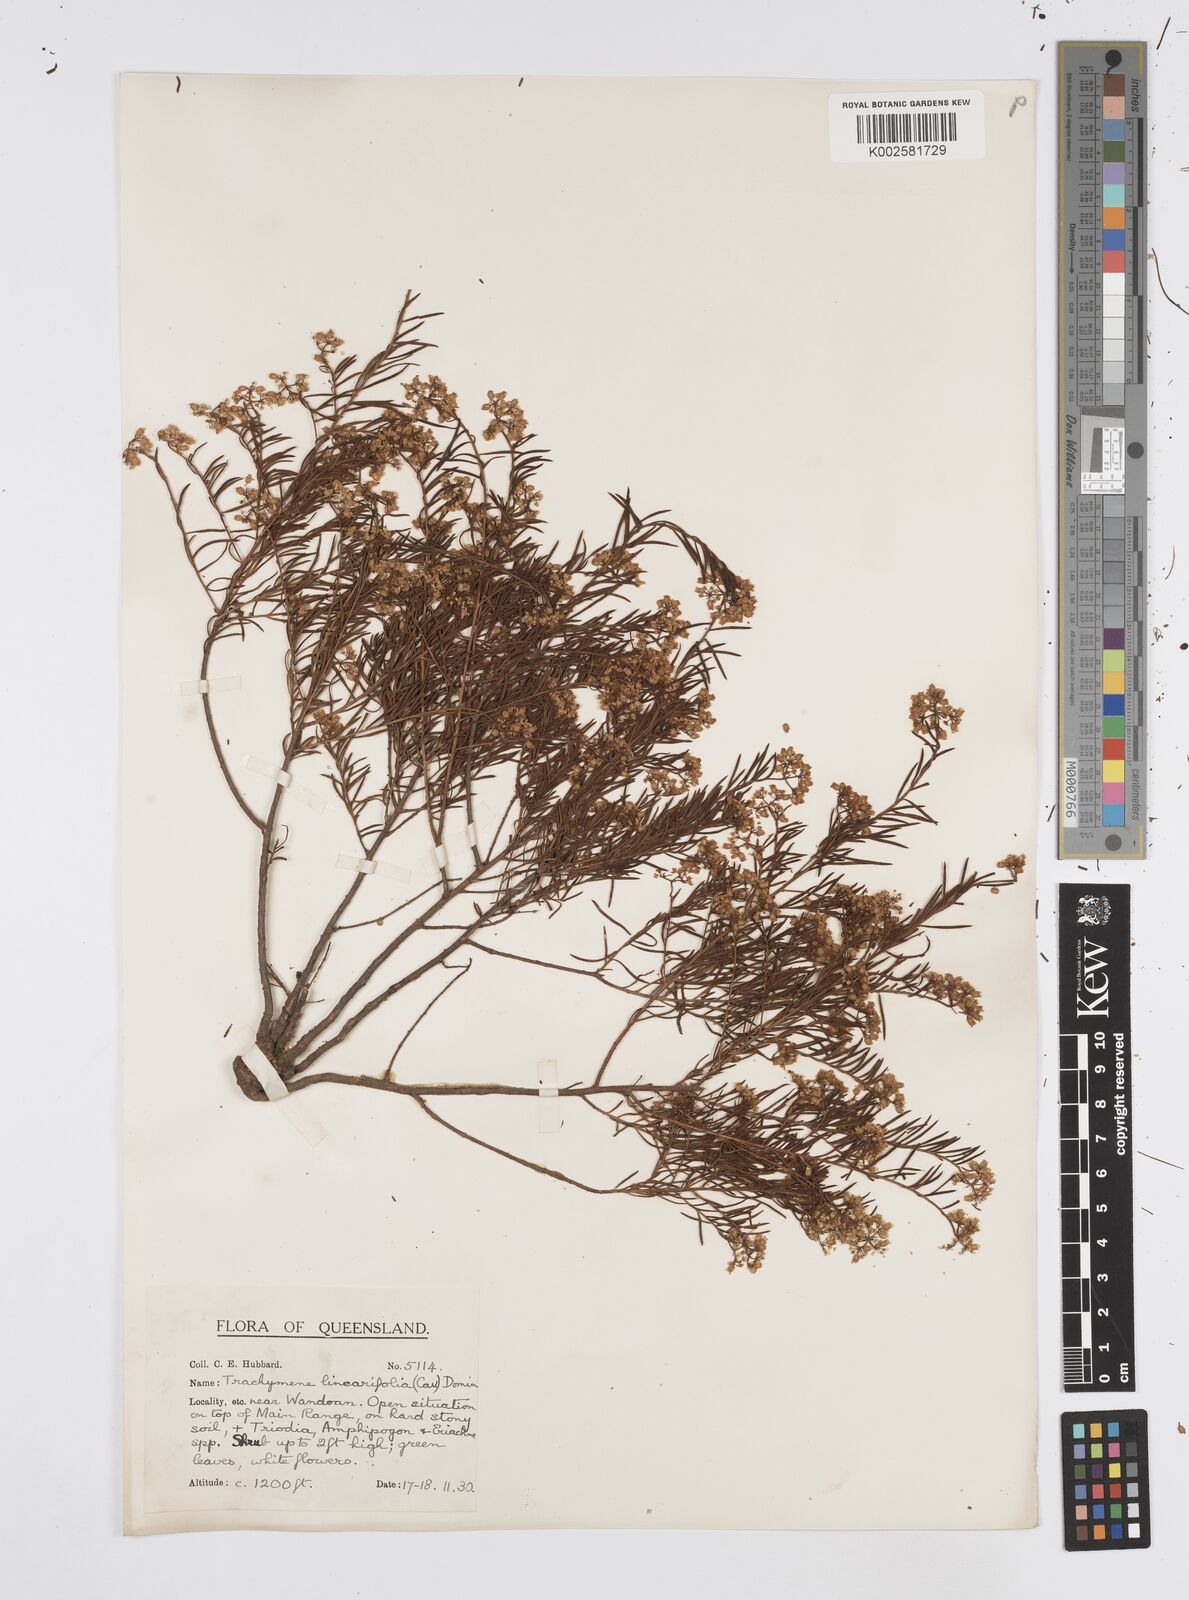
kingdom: Plantae
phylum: Tracheophyta
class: Magnoliopsida
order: Apiales
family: Apiaceae
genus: Platysace
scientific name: Platysace ericoides
